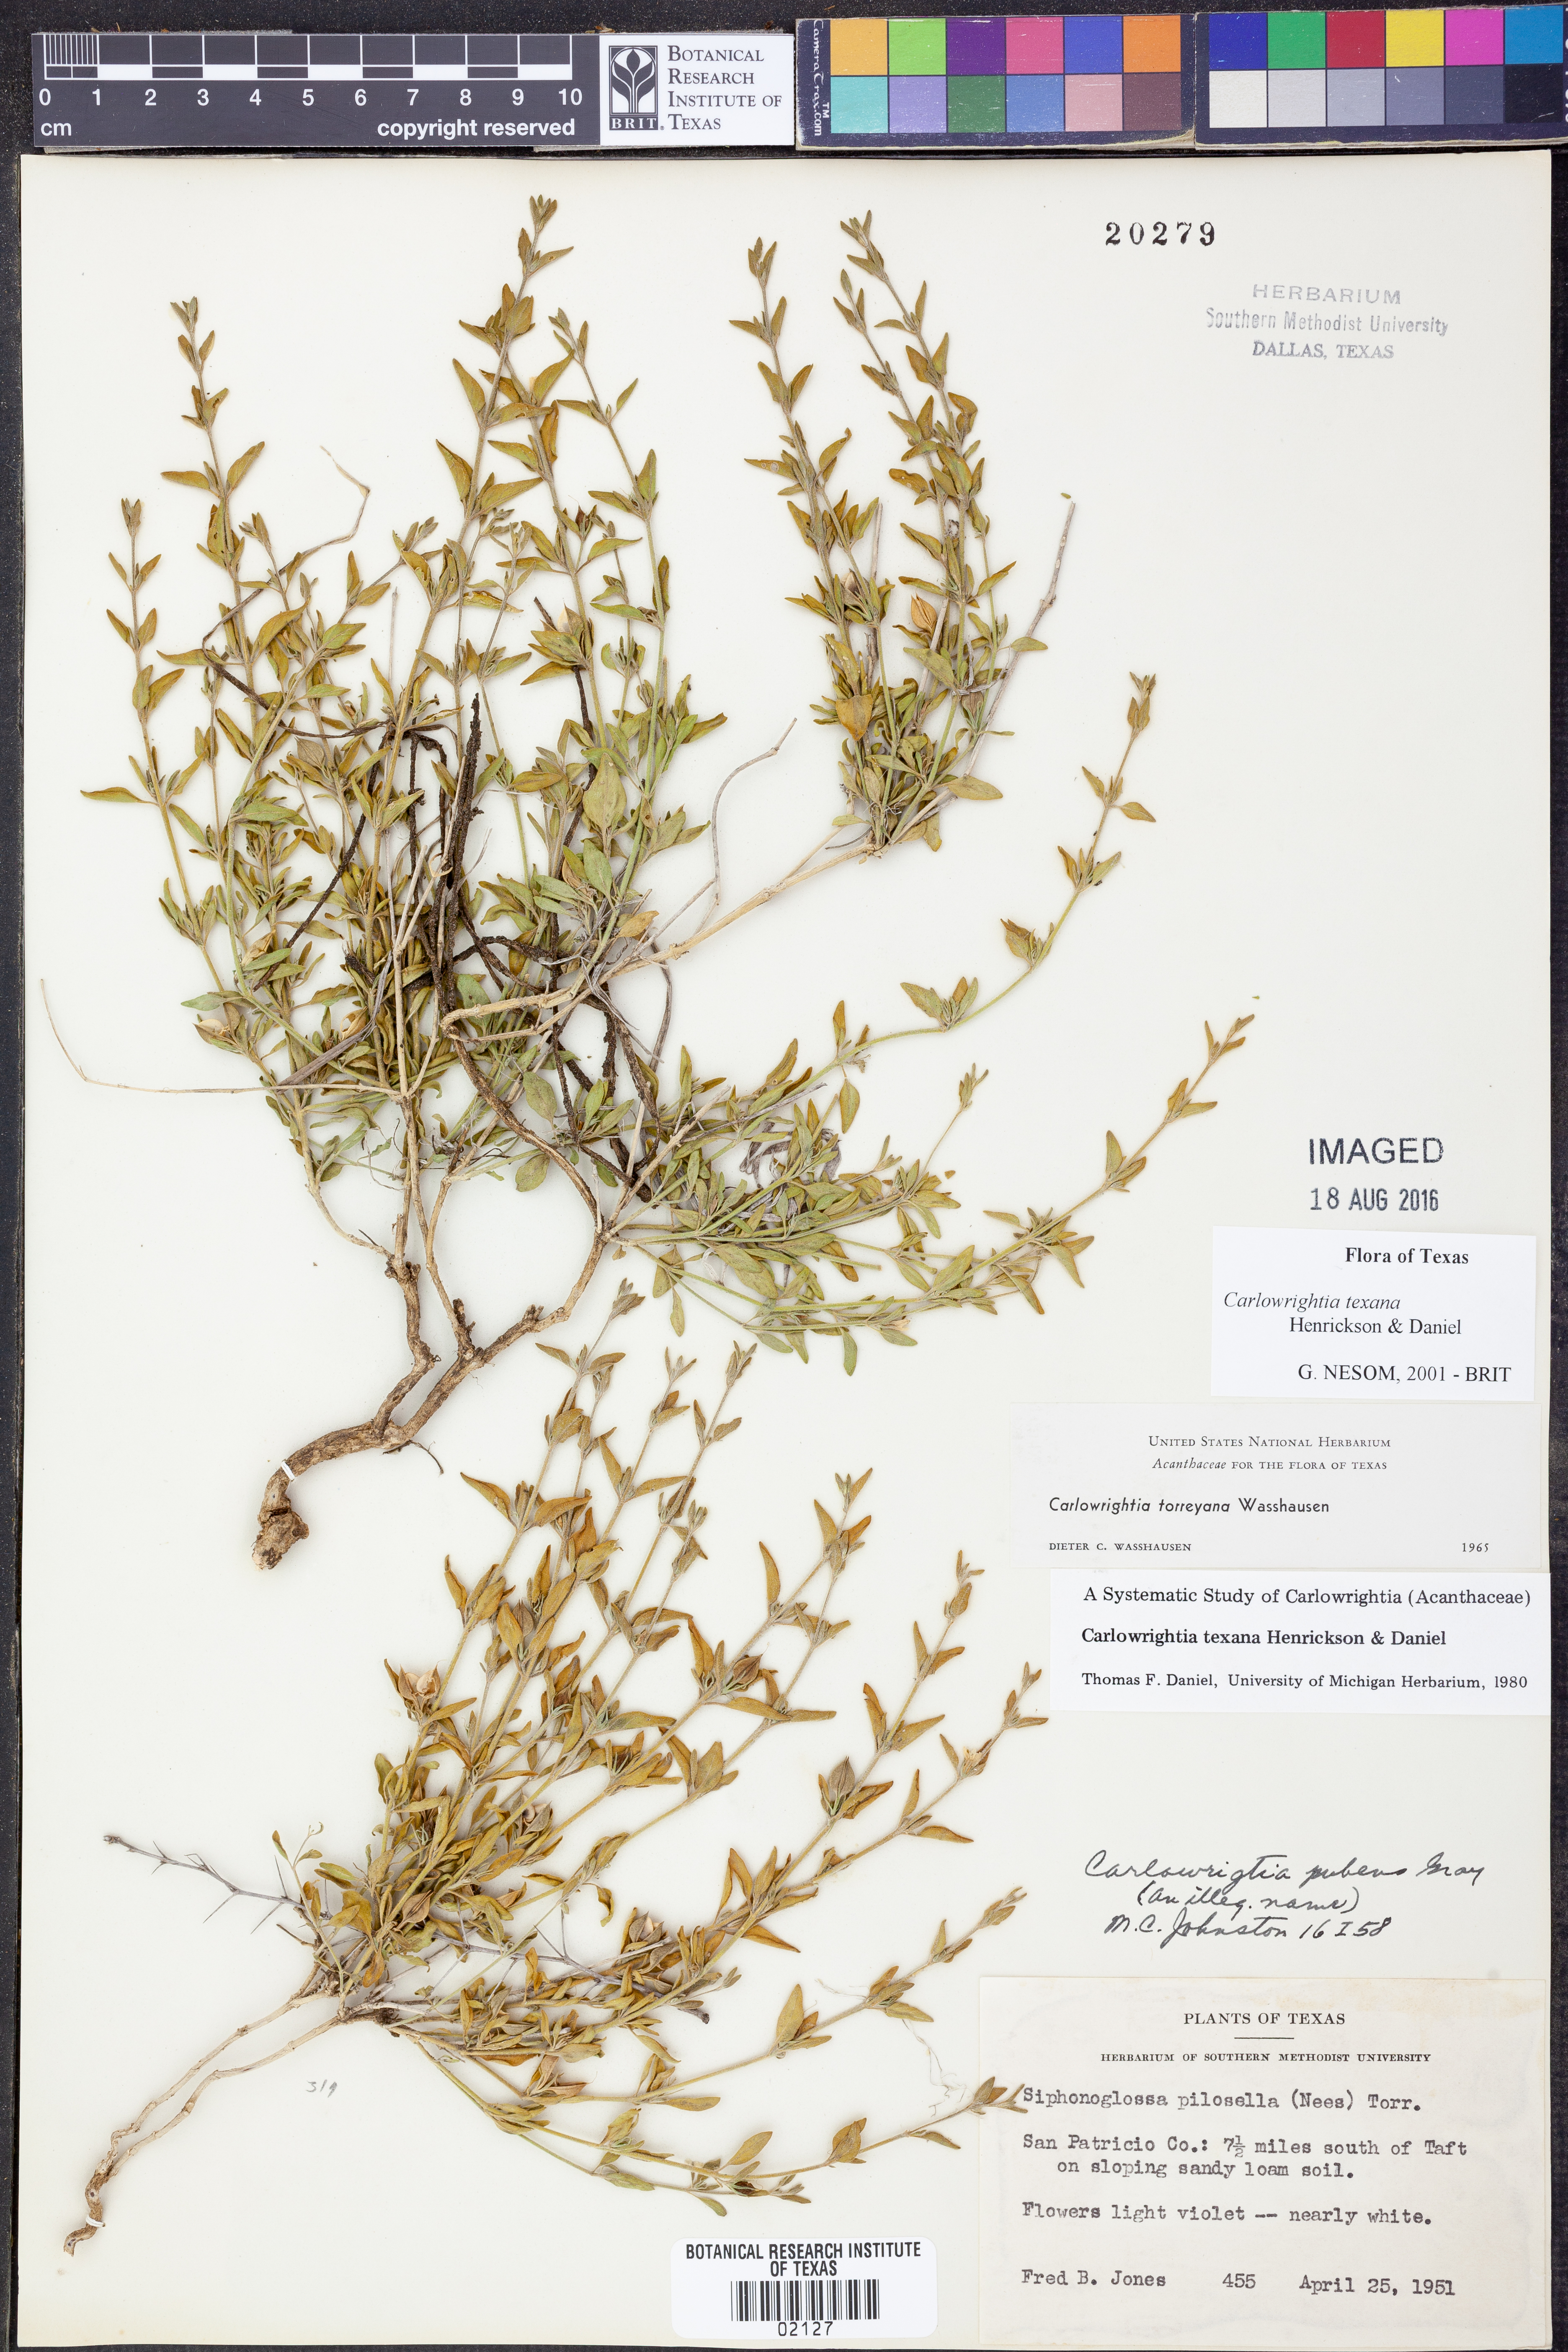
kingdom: Plantae
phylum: Tracheophyta
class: Magnoliopsida
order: Lamiales
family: Acanthaceae
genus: Carlowrightia
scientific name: Carlowrightia texana
